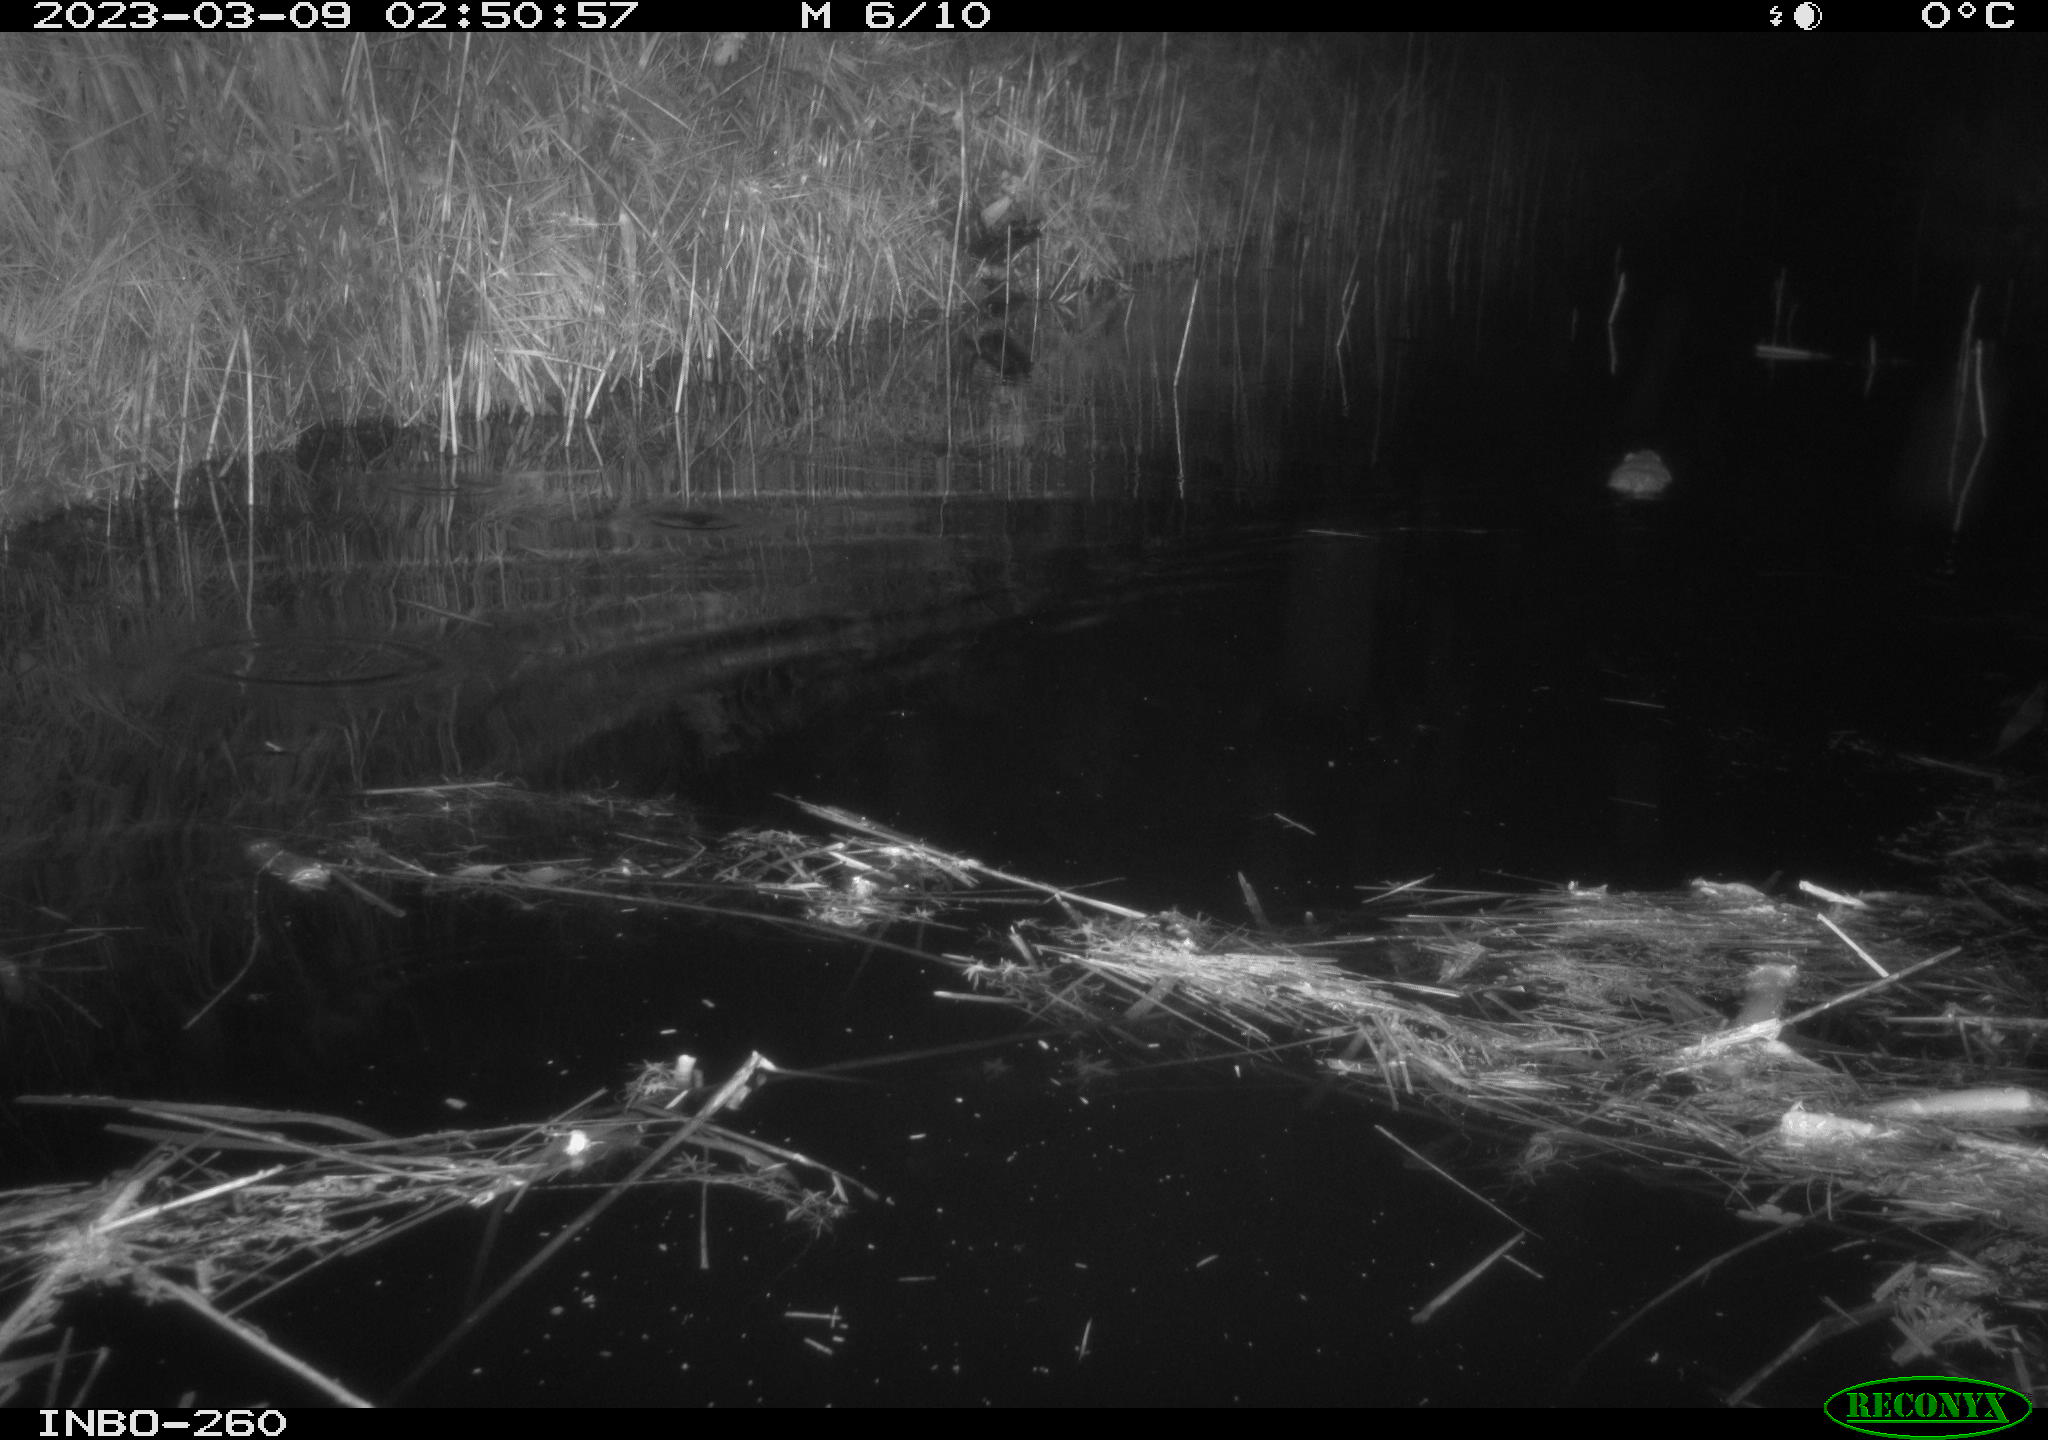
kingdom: Animalia
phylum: Chordata
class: Mammalia
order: Rodentia
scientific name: Rodentia
